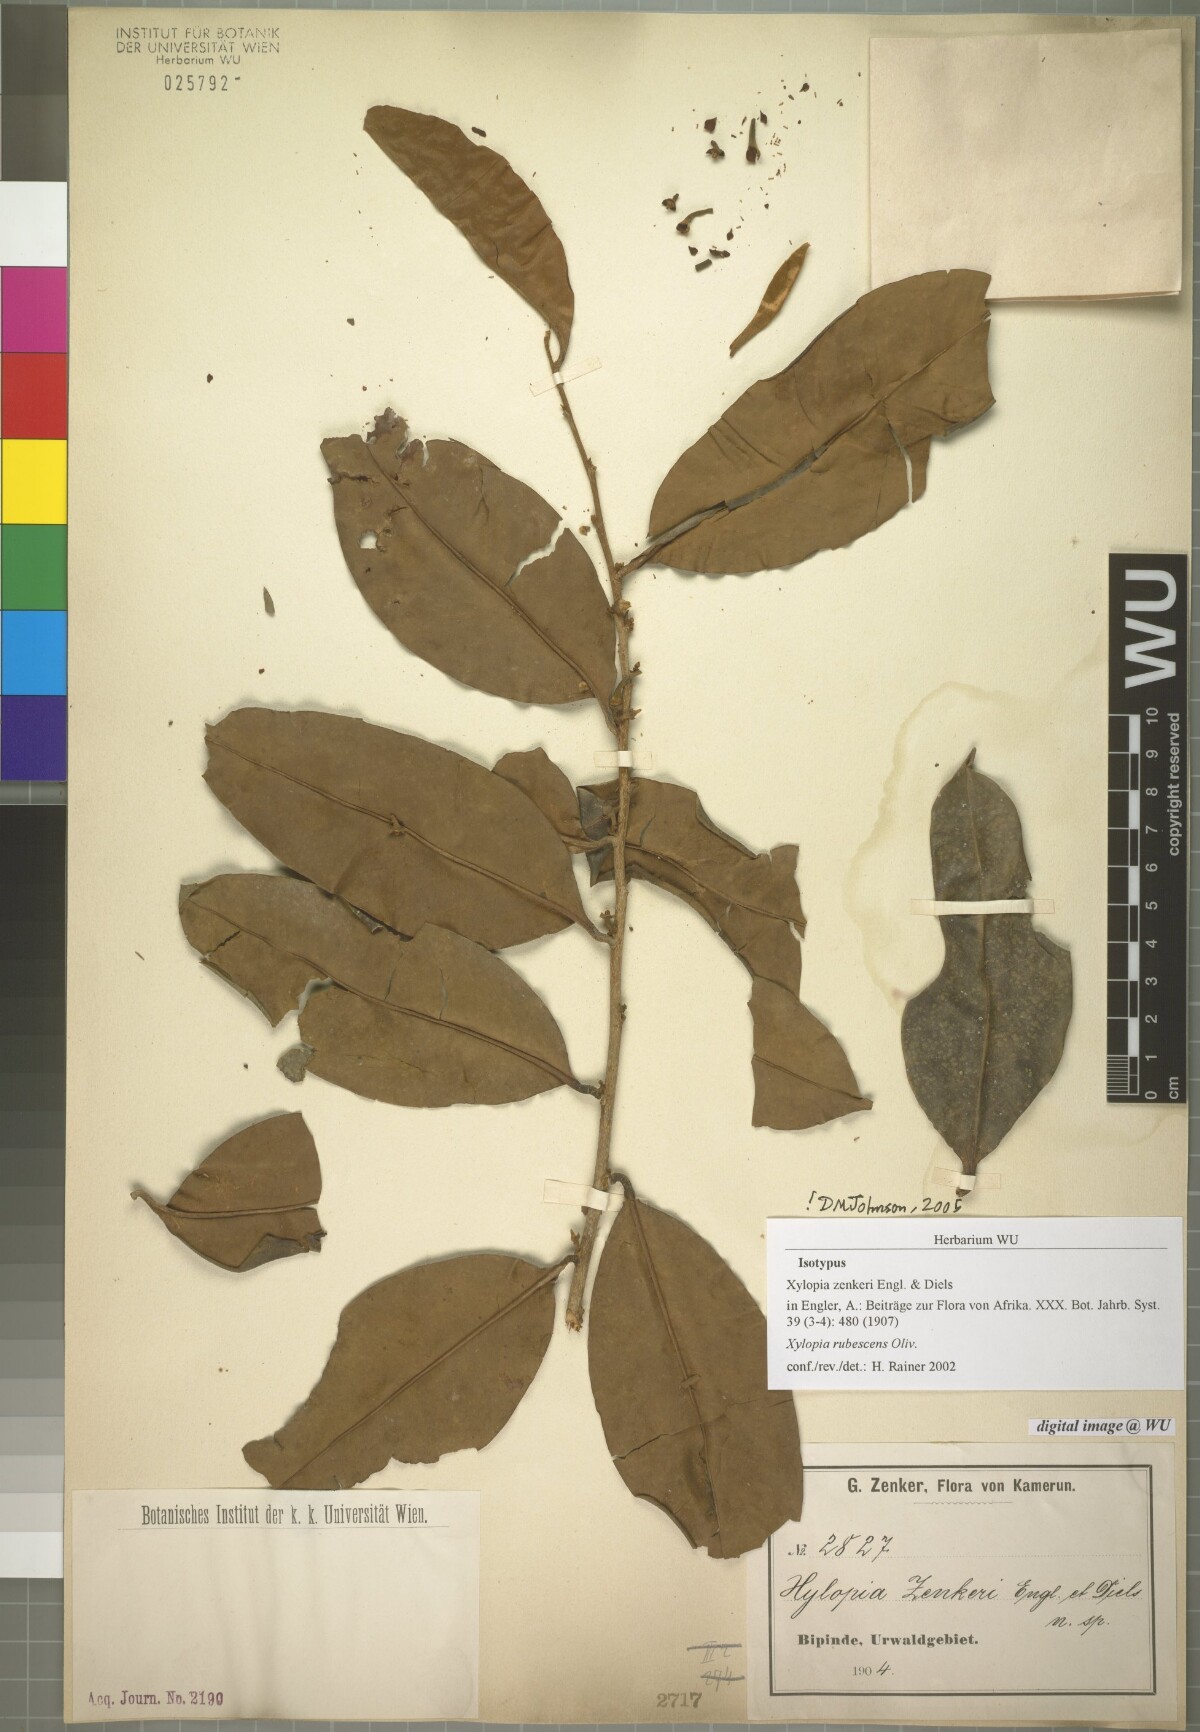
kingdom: Plantae
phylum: Tracheophyta
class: Magnoliopsida
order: Magnoliales
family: Annonaceae
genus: Xylopia
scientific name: Xylopia rubescens
